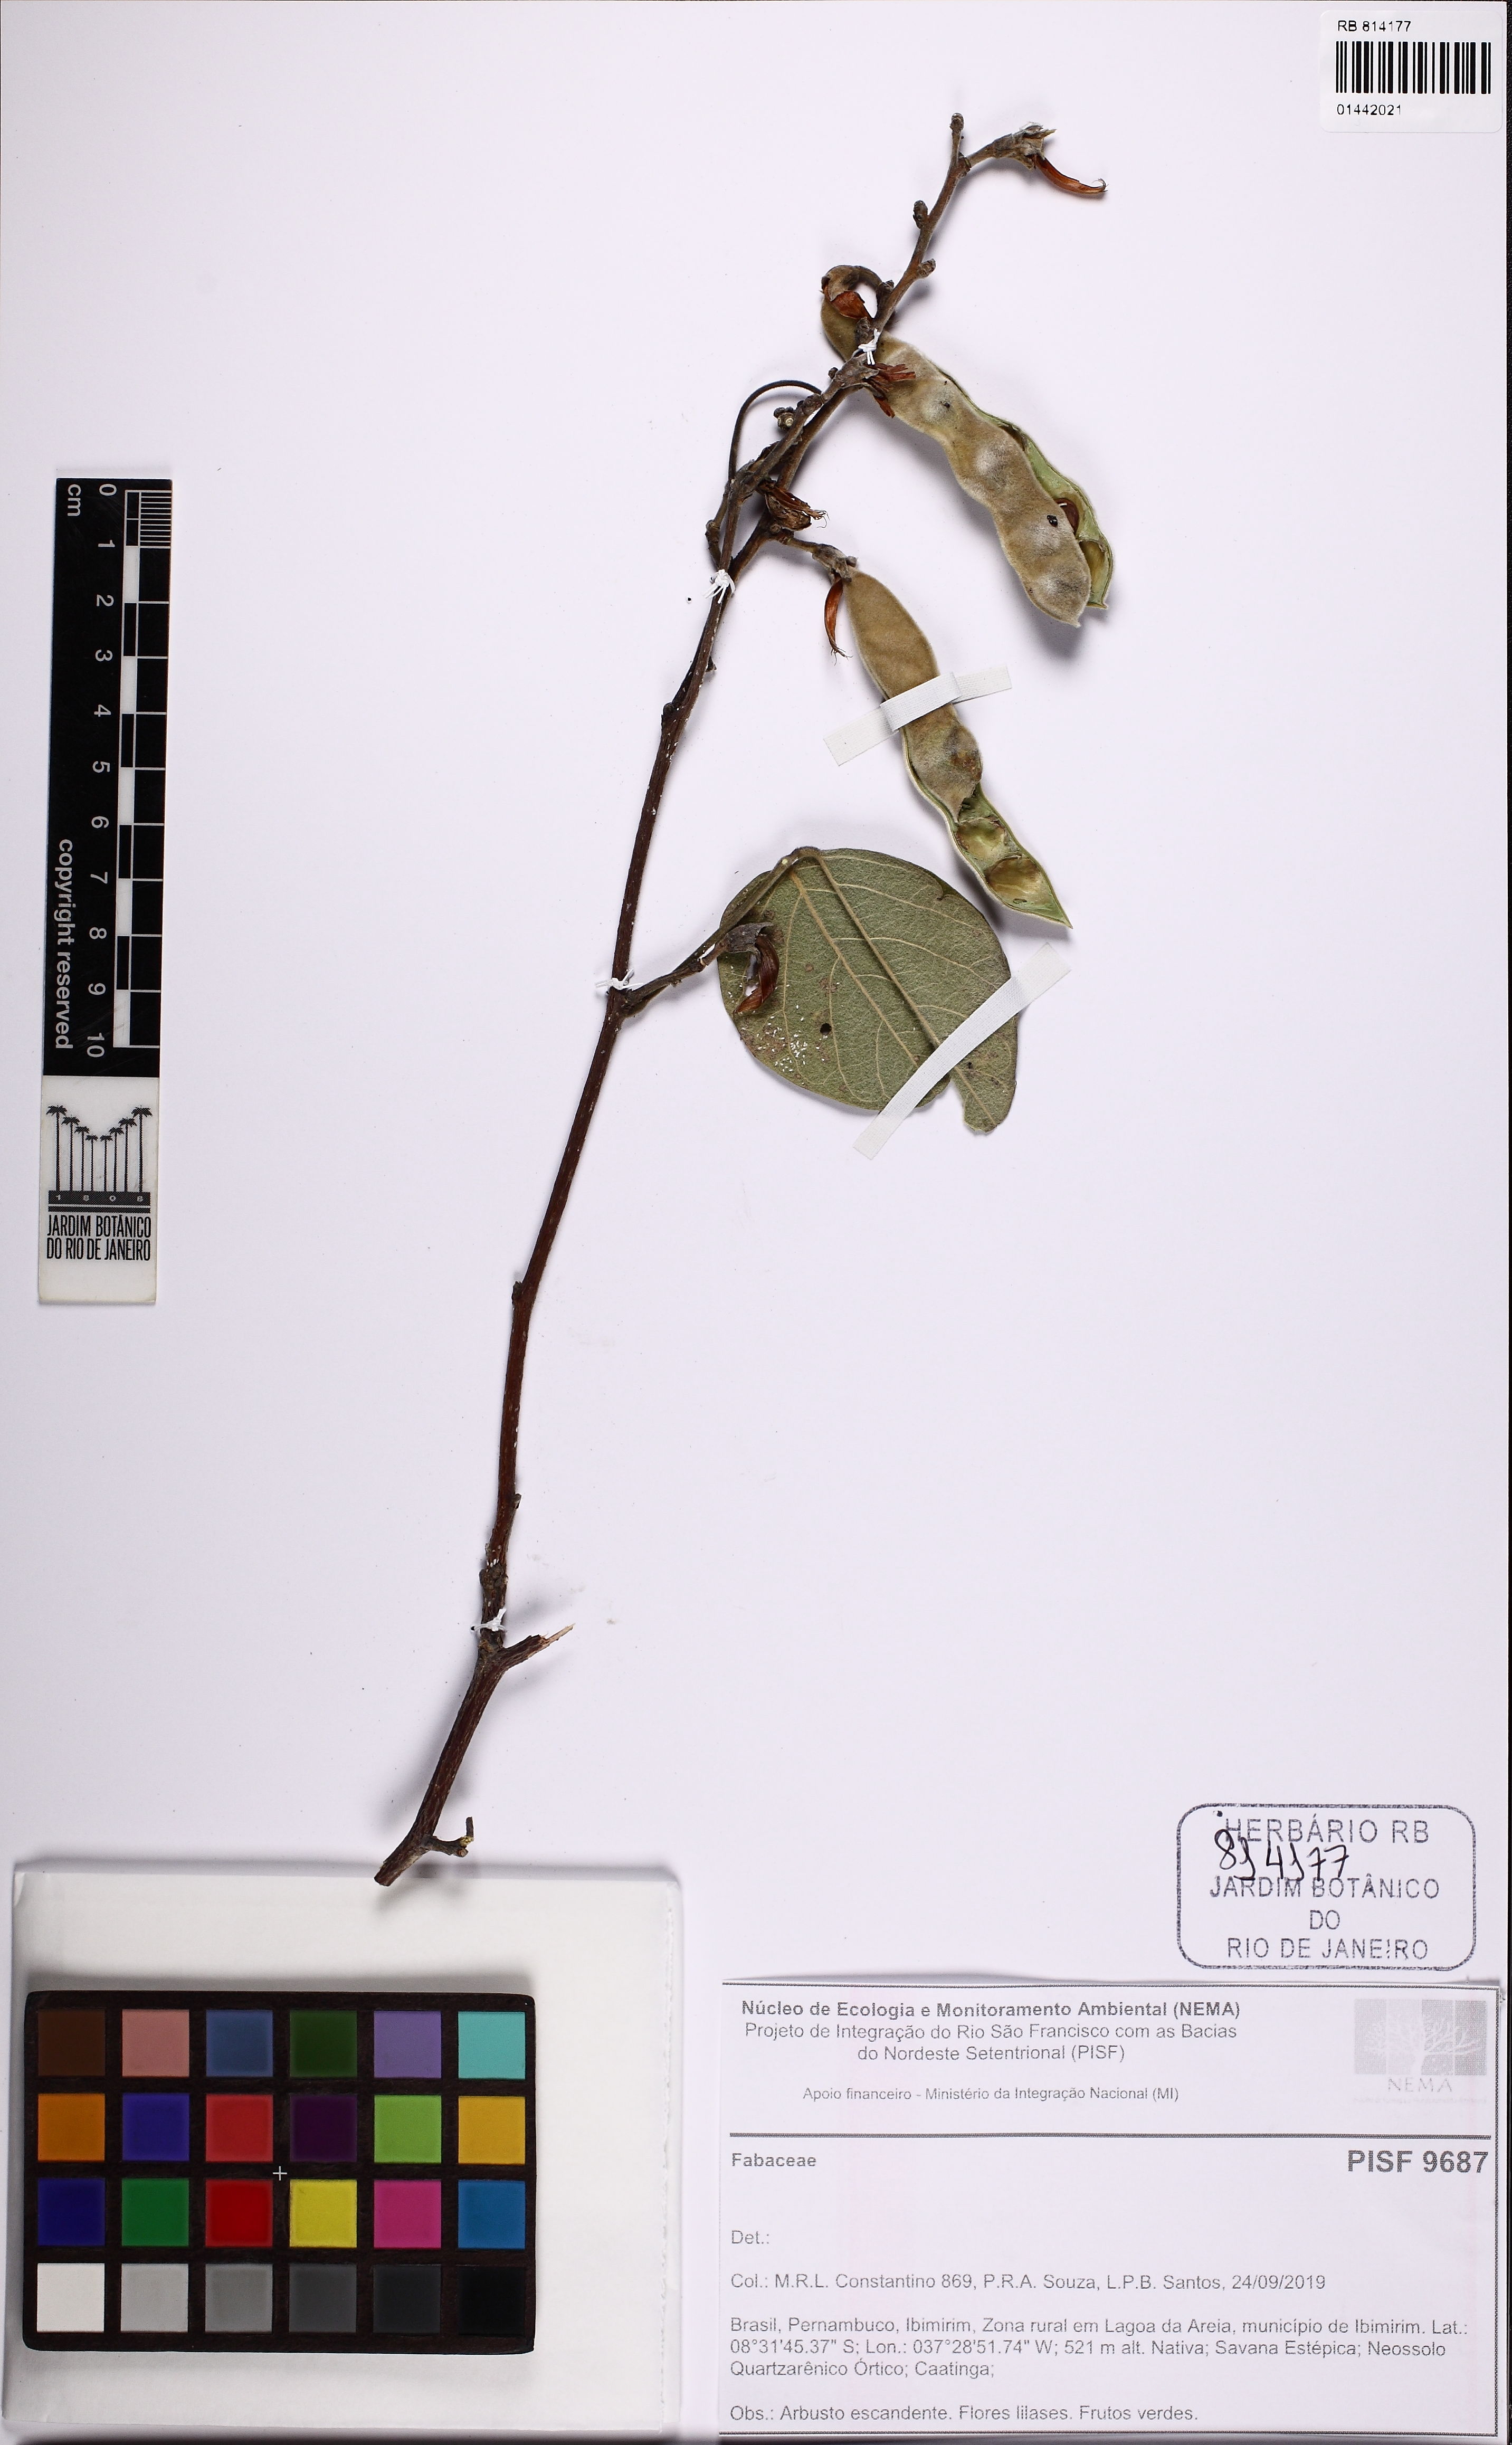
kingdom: Plantae
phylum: Tracheophyta
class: Magnoliopsida
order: Fabales
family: Fabaceae
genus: Cratylia
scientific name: Cratylia mollis
